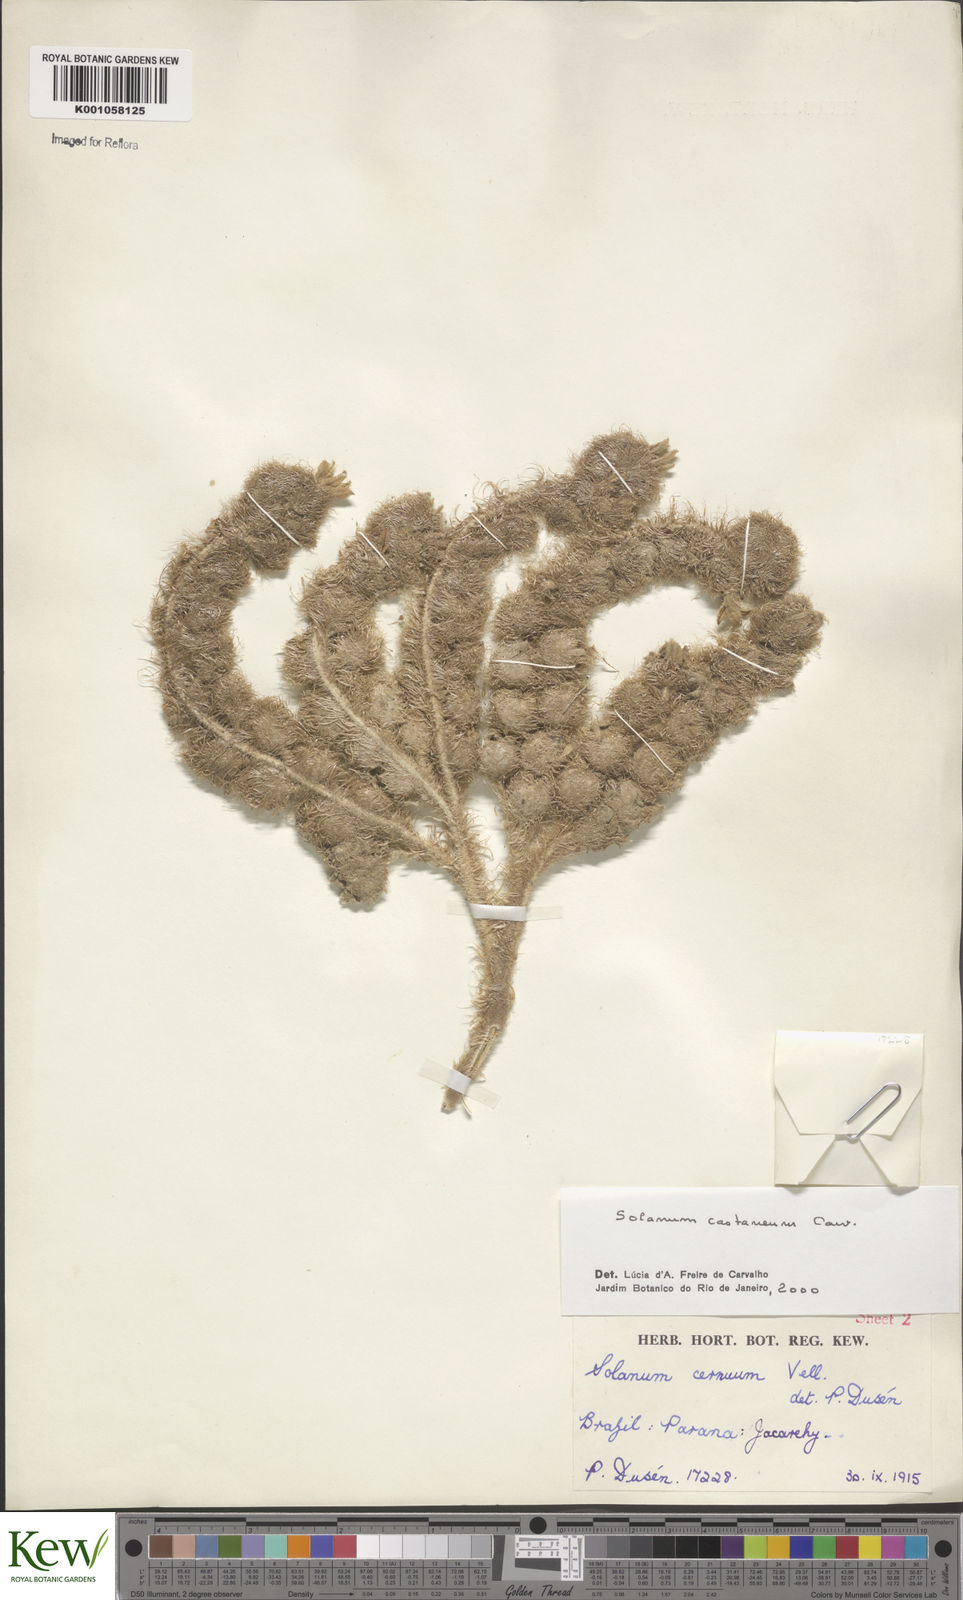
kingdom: Plantae
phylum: Tracheophyta
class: Magnoliopsida
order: Solanales
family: Solanaceae
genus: Solanum
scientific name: Solanum castaneum
